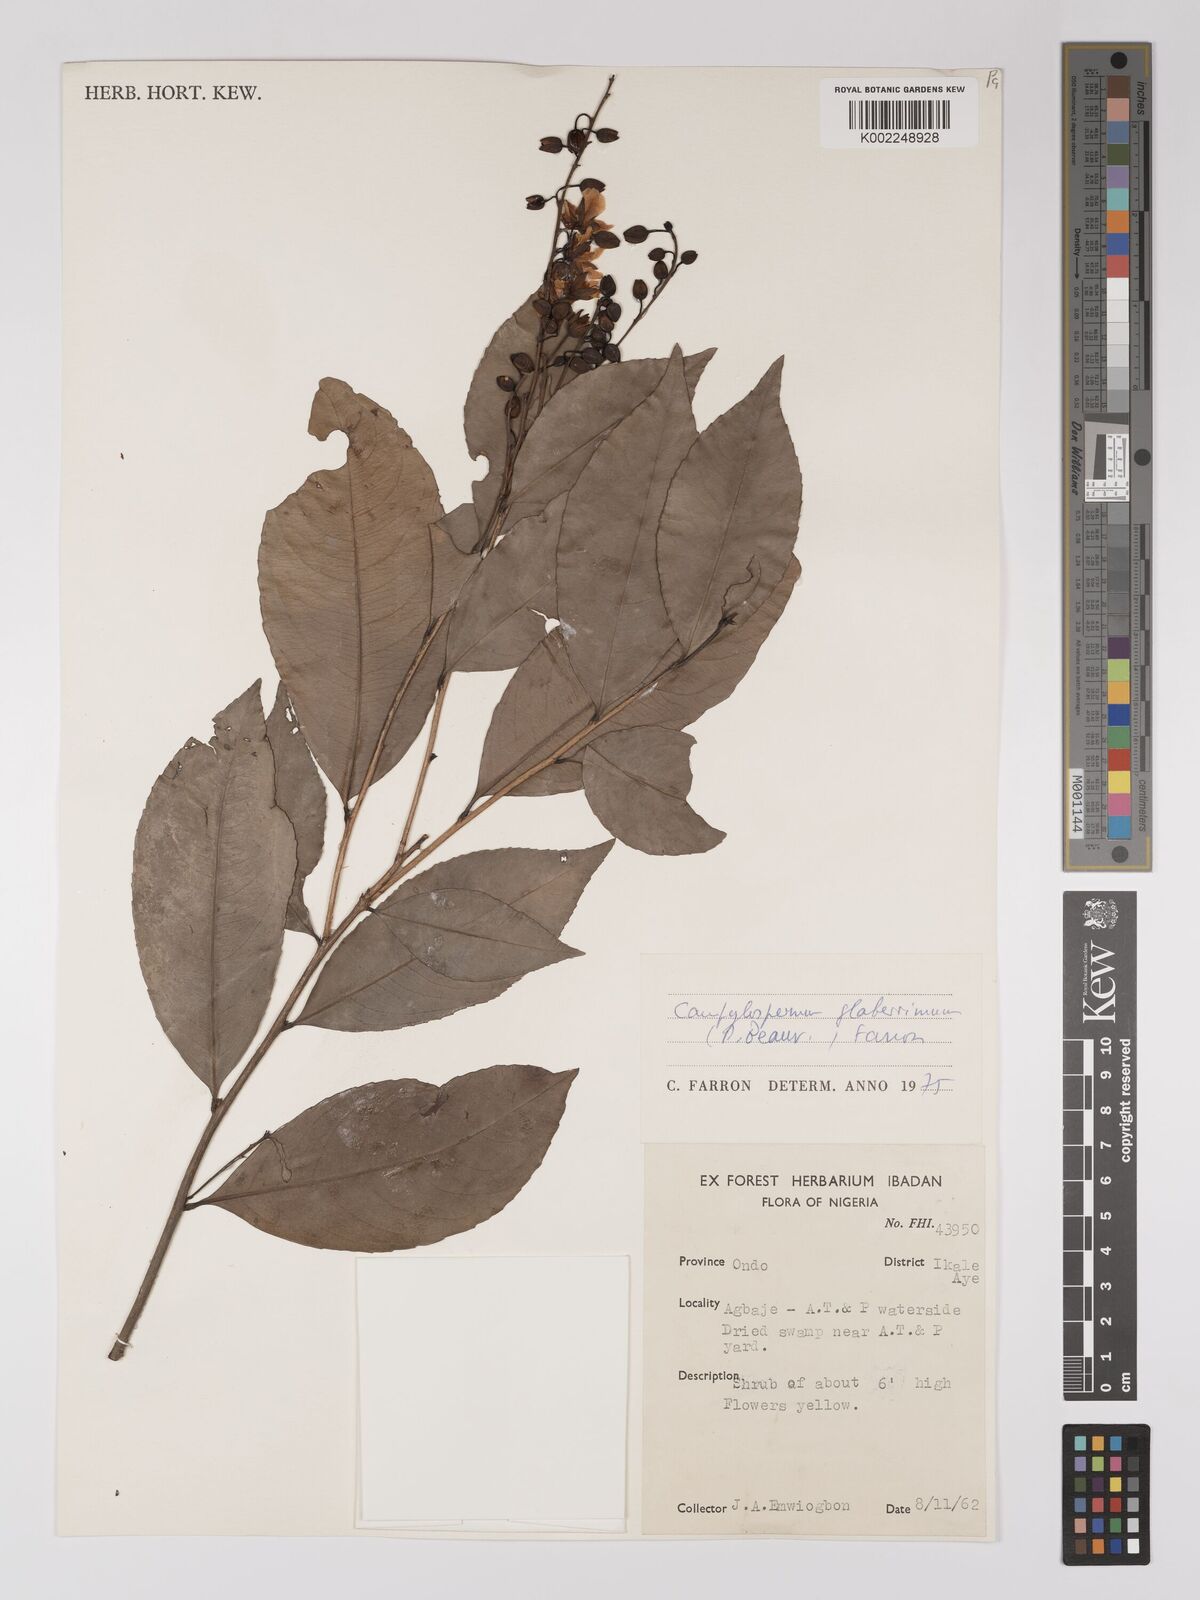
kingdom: Plantae
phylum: Tracheophyta
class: Magnoliopsida
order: Malpighiales
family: Ochnaceae
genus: Campylospermum
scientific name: Campylospermum glaberrimum
